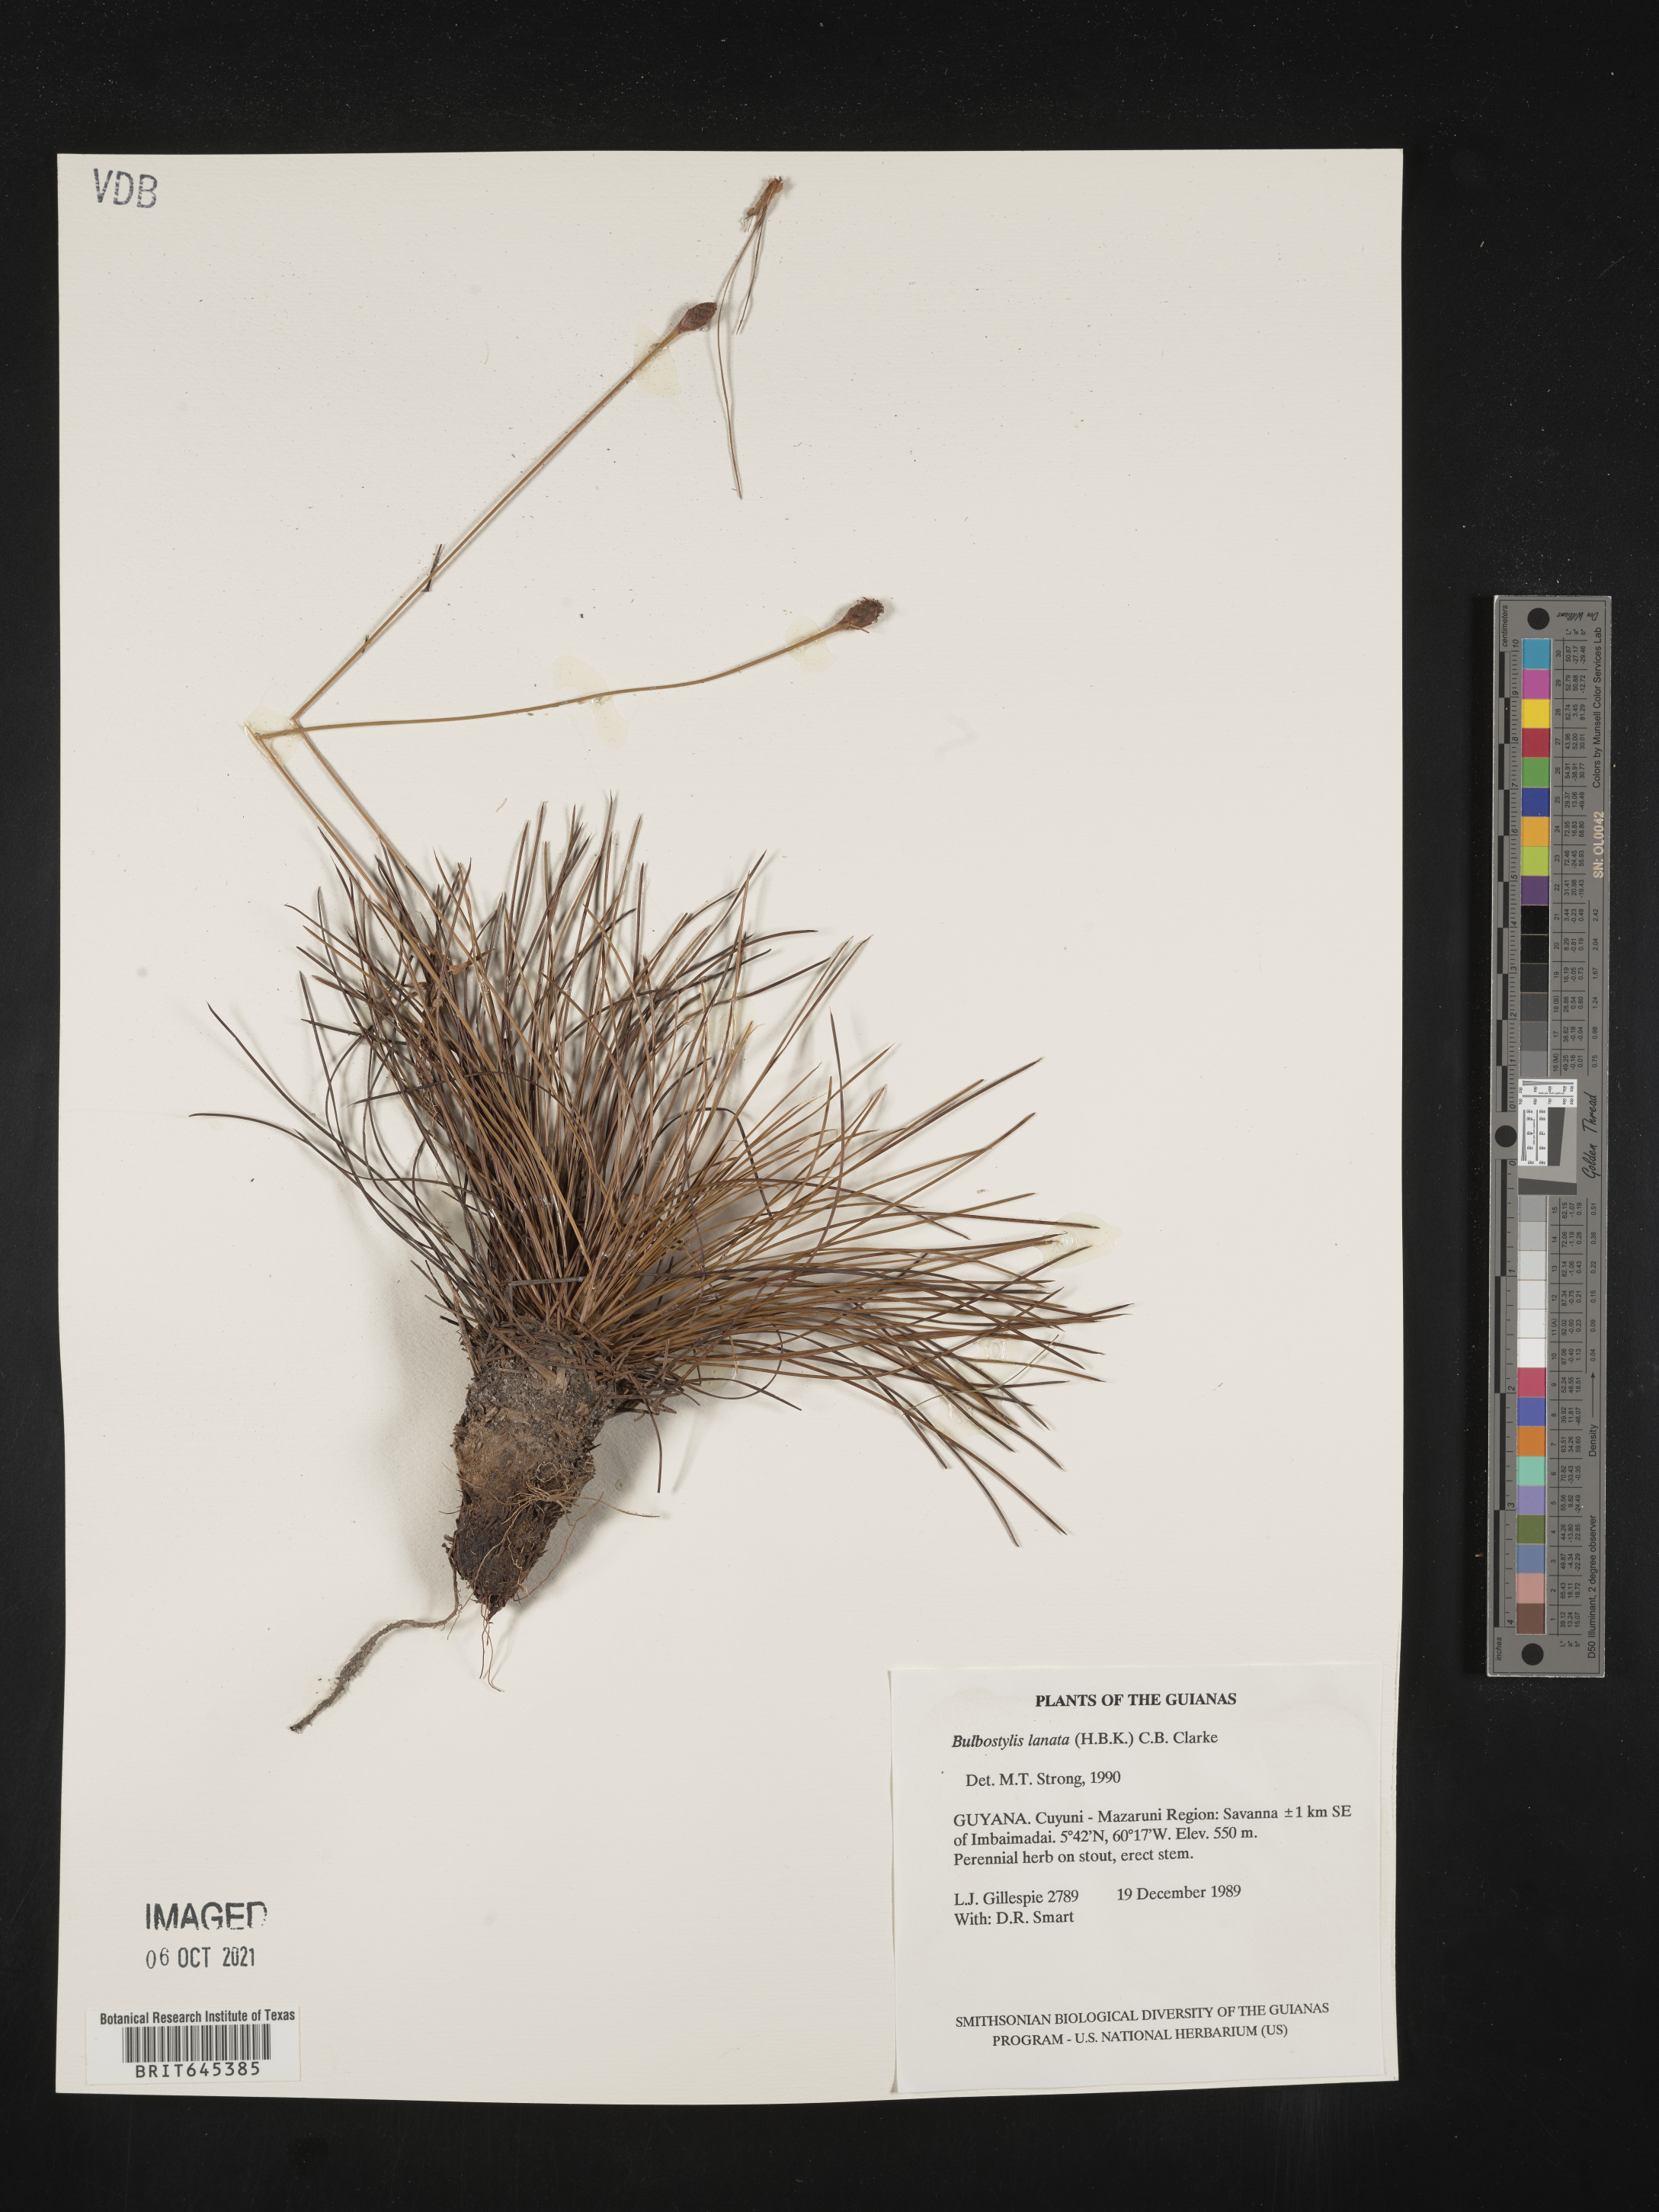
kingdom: Plantae
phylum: Tracheophyta
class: Liliopsida
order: Poales
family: Cyperaceae
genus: Bulbostylis
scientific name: Bulbostylis lanata
